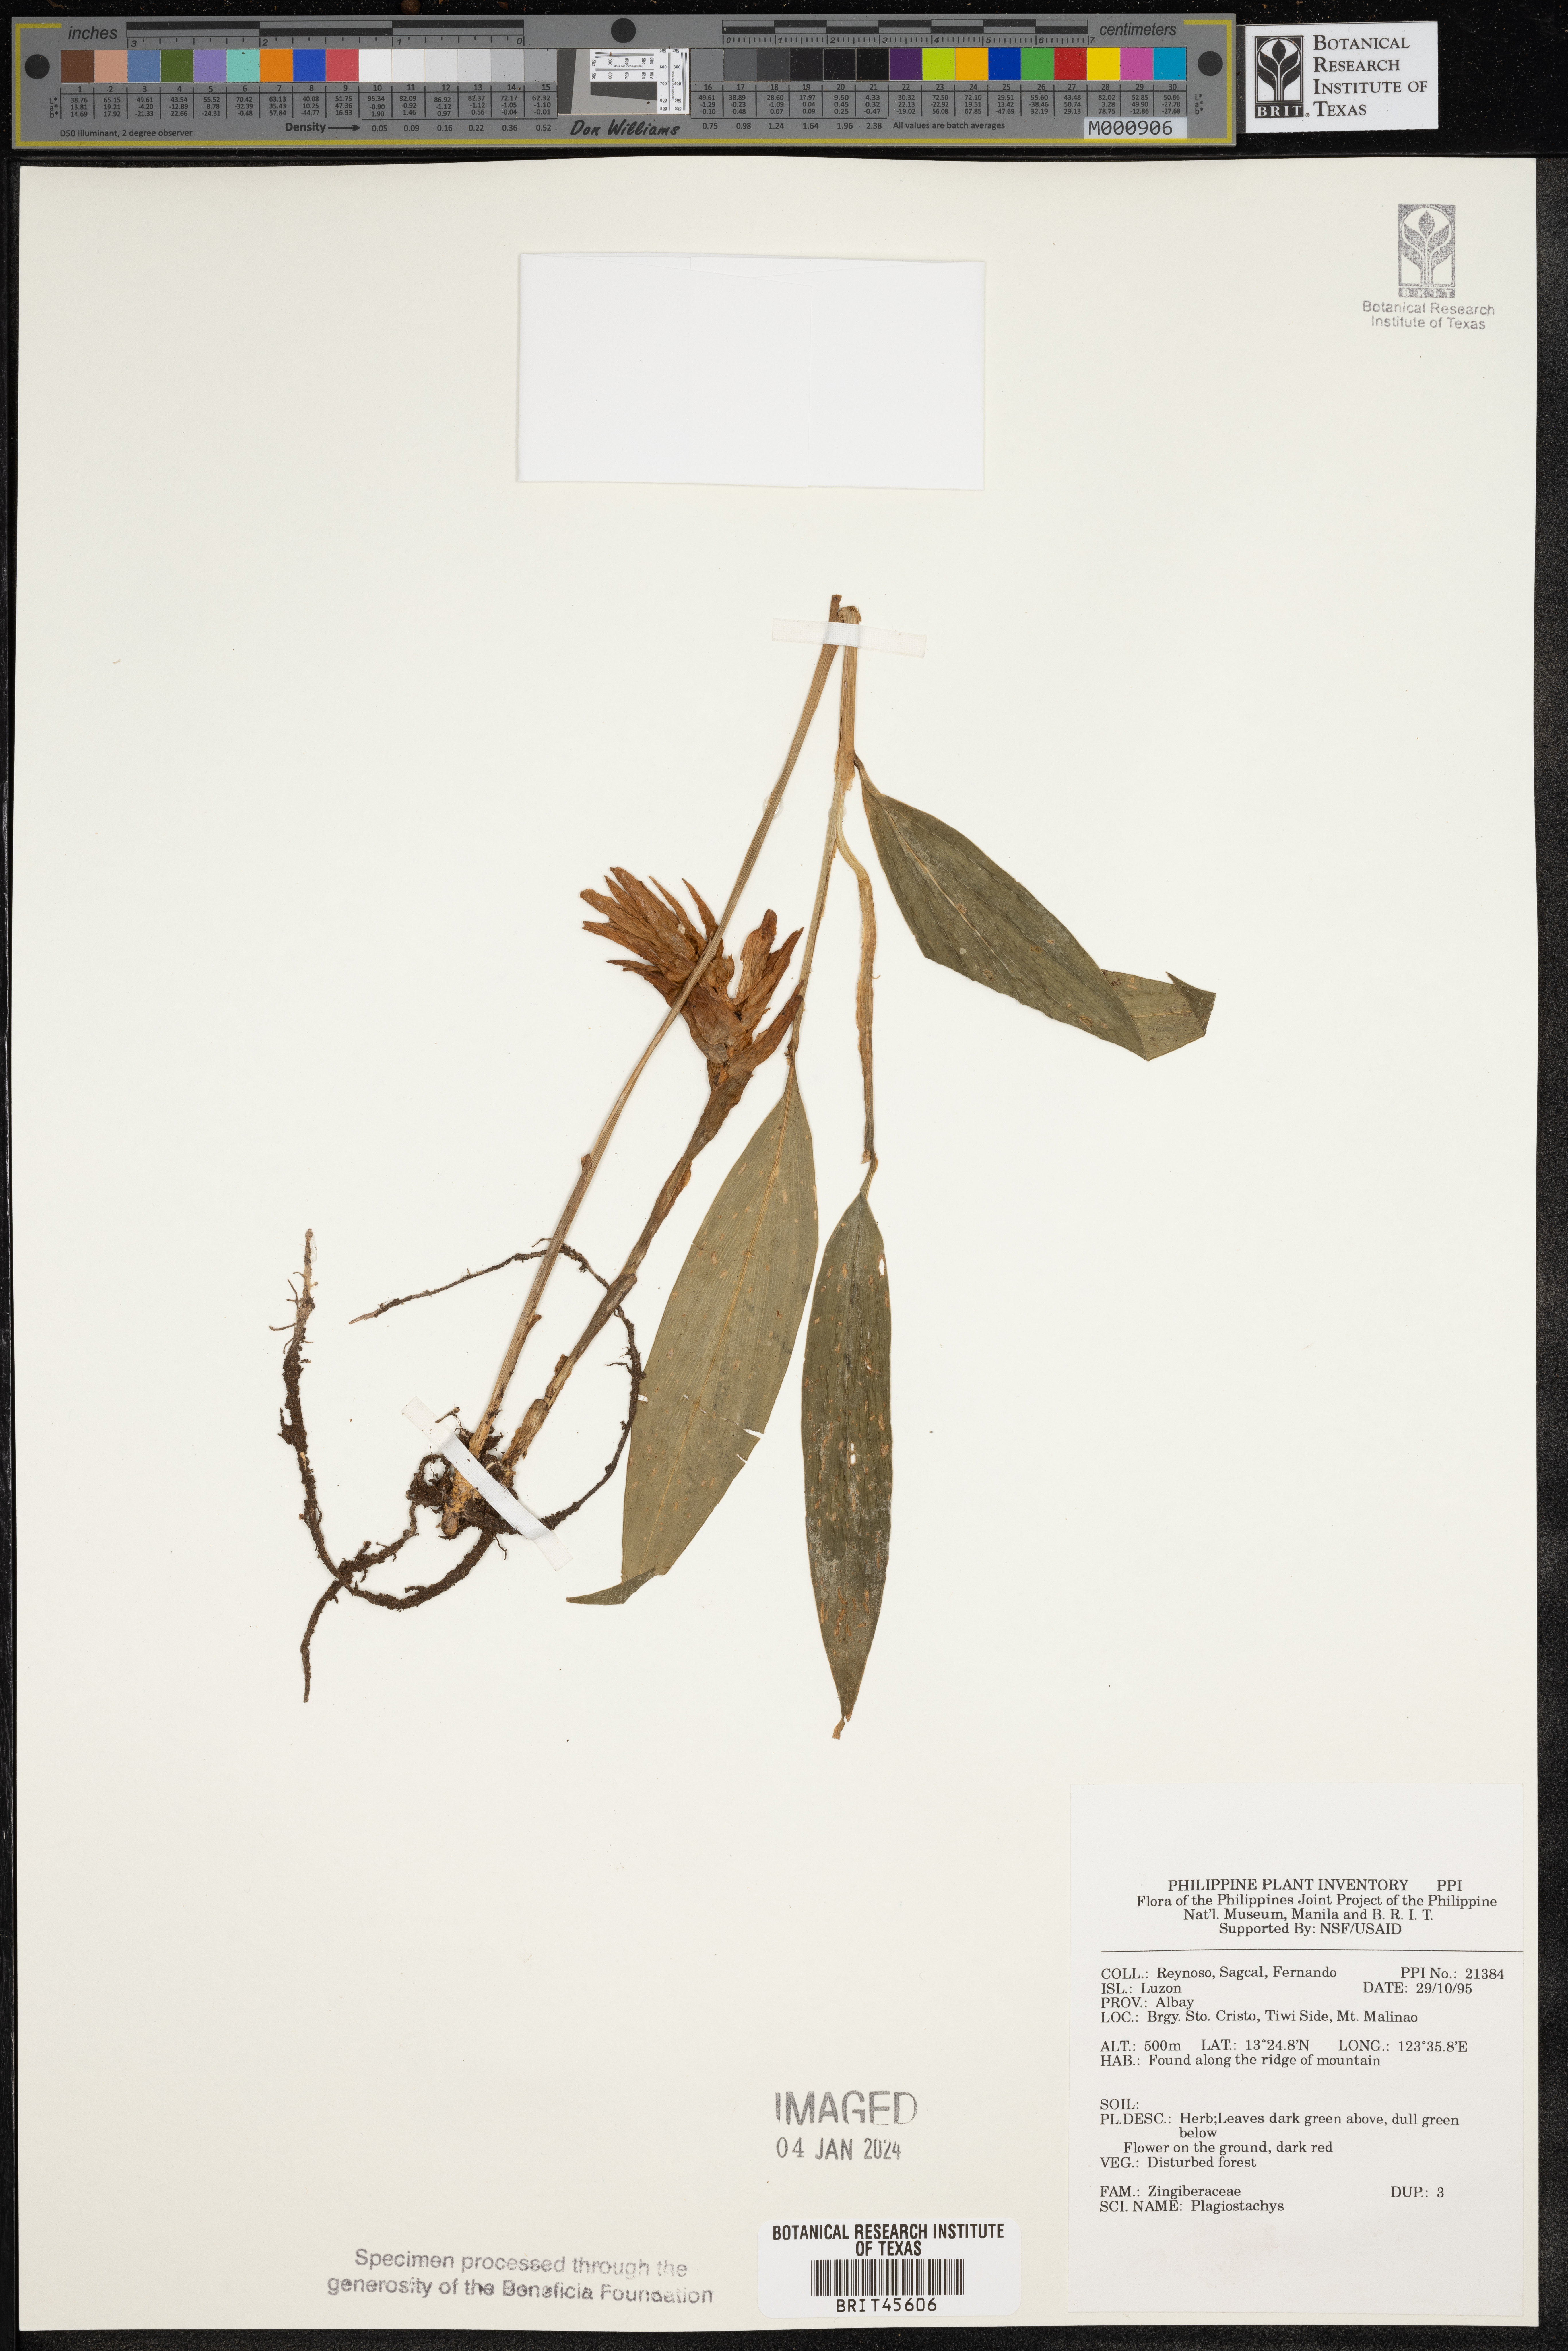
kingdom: Plantae
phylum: Tracheophyta
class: Liliopsida
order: Zingiberales
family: Zingiberaceae
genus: Plagiostachys
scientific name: Plagiostachys
